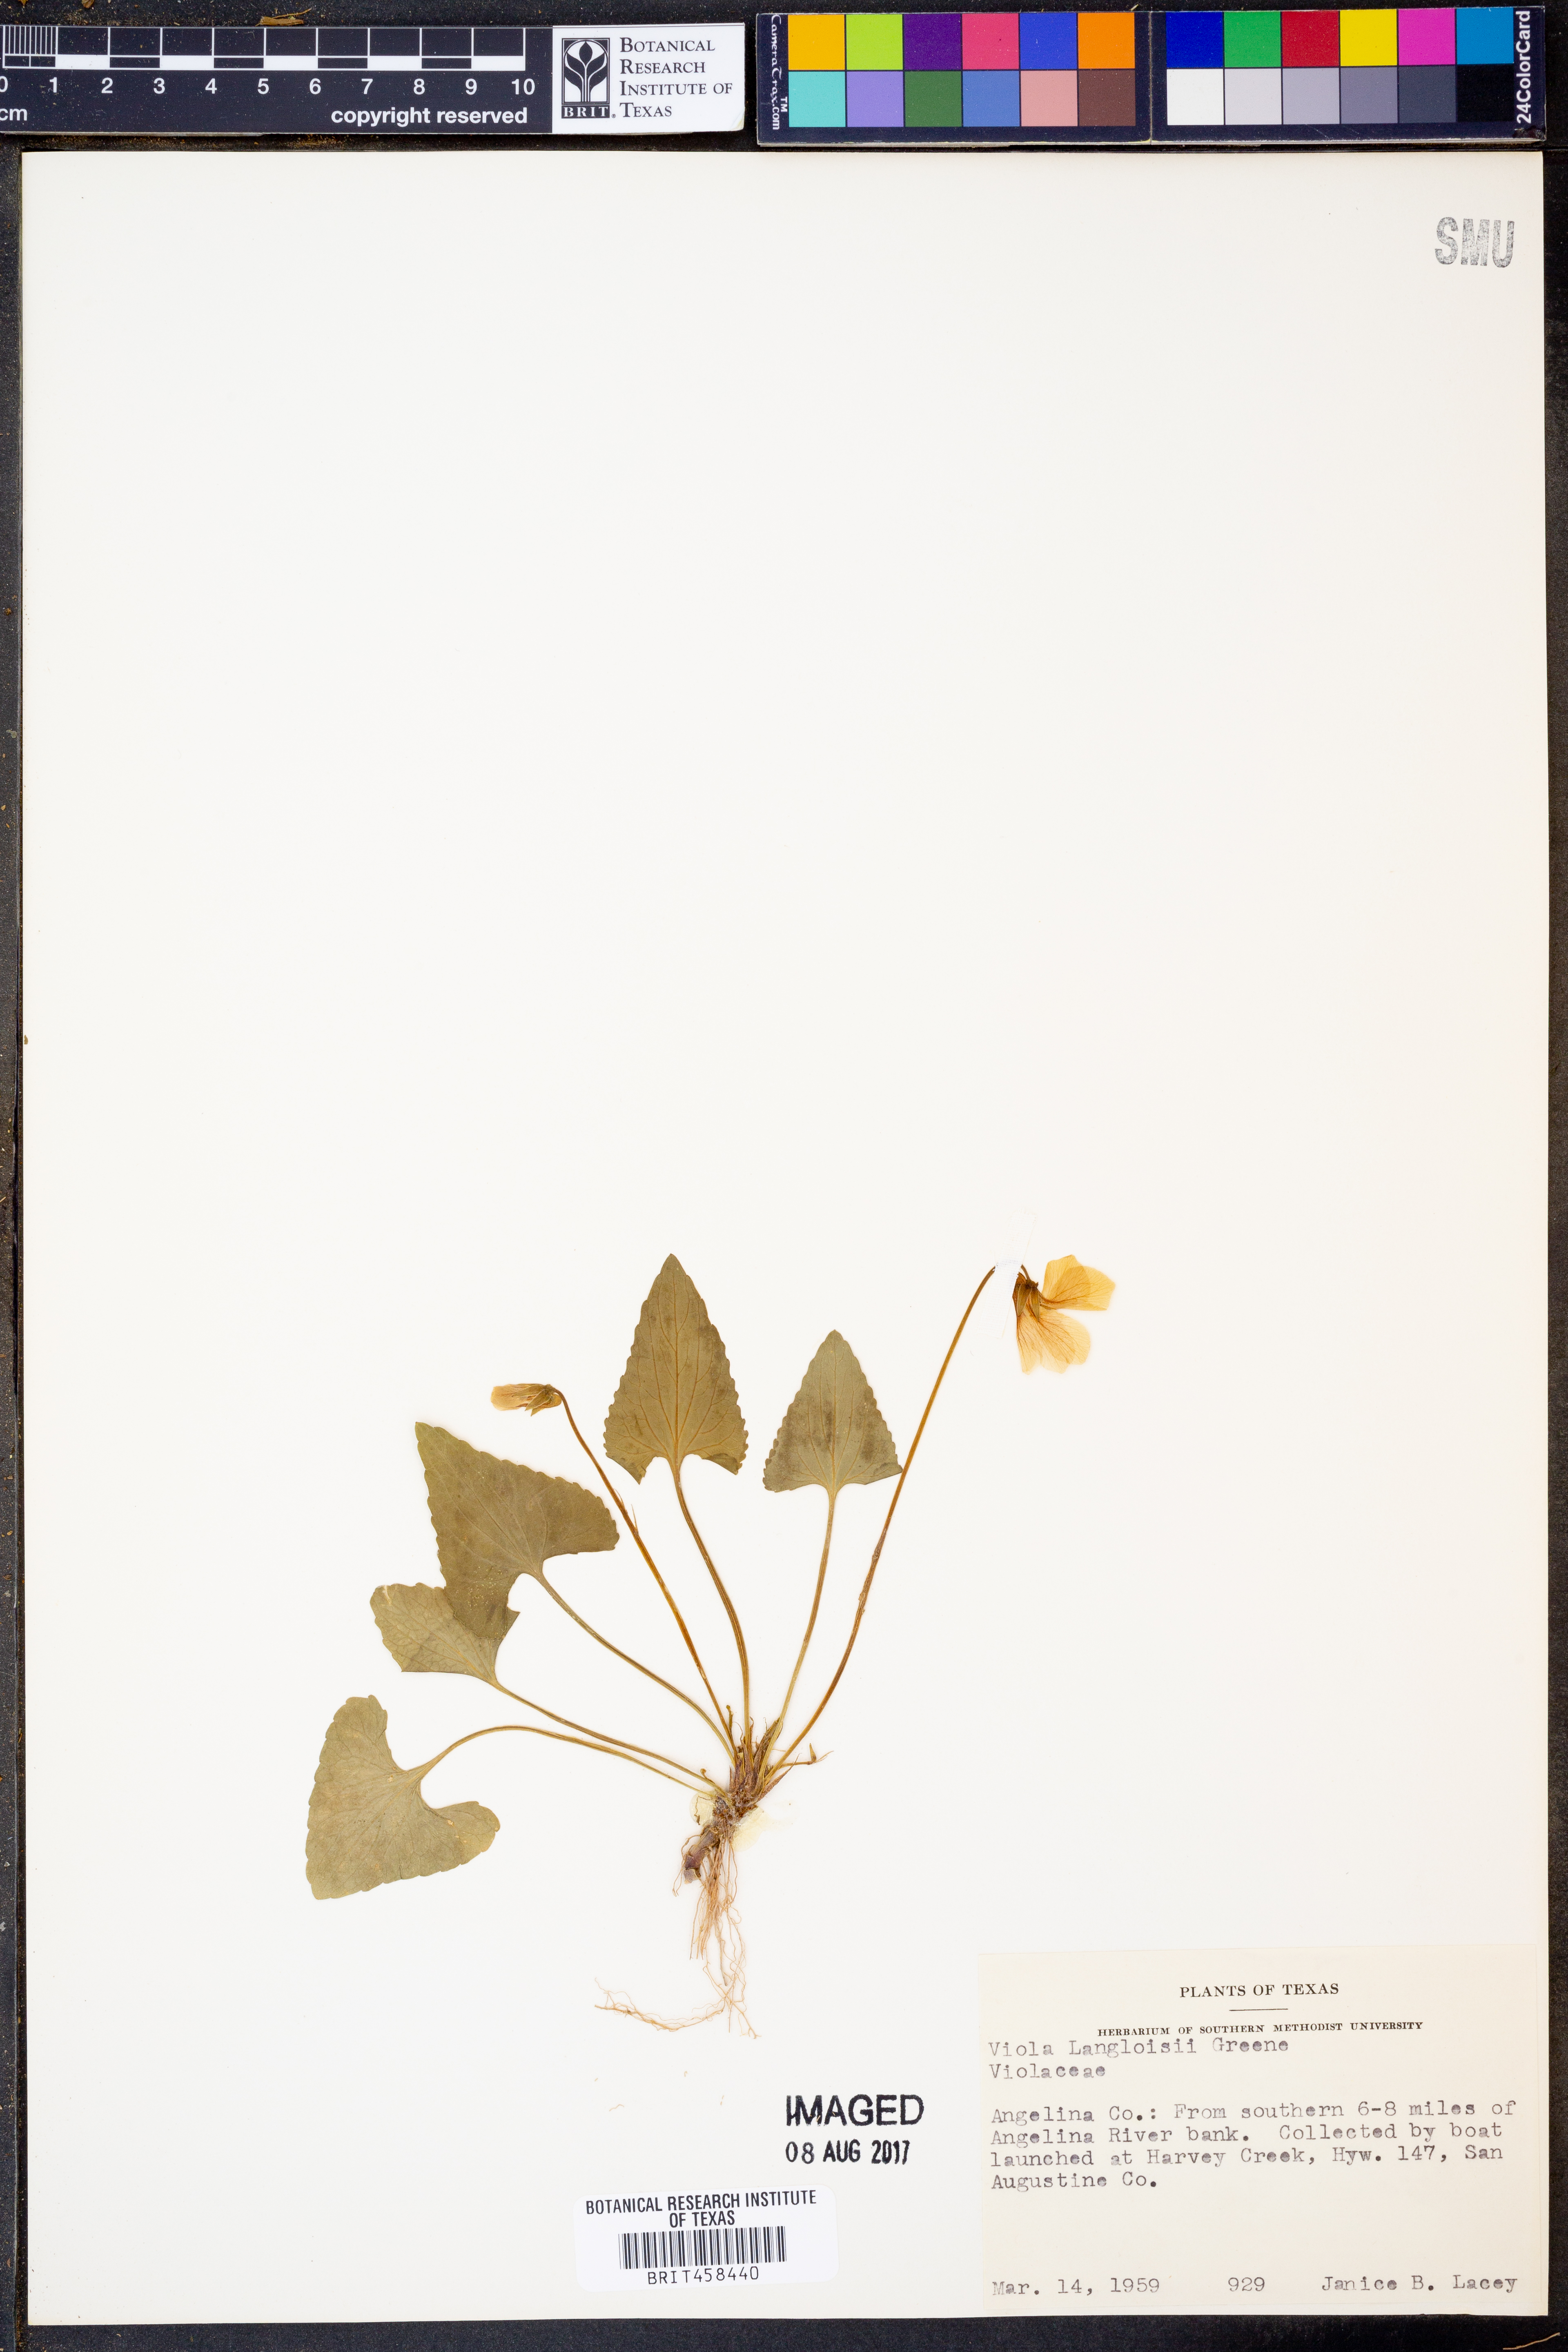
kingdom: Plantae
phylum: Tracheophyta
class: Magnoliopsida
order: Malpighiales
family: Violaceae
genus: Viola
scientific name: Viola langloisii
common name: Langlois' violet
